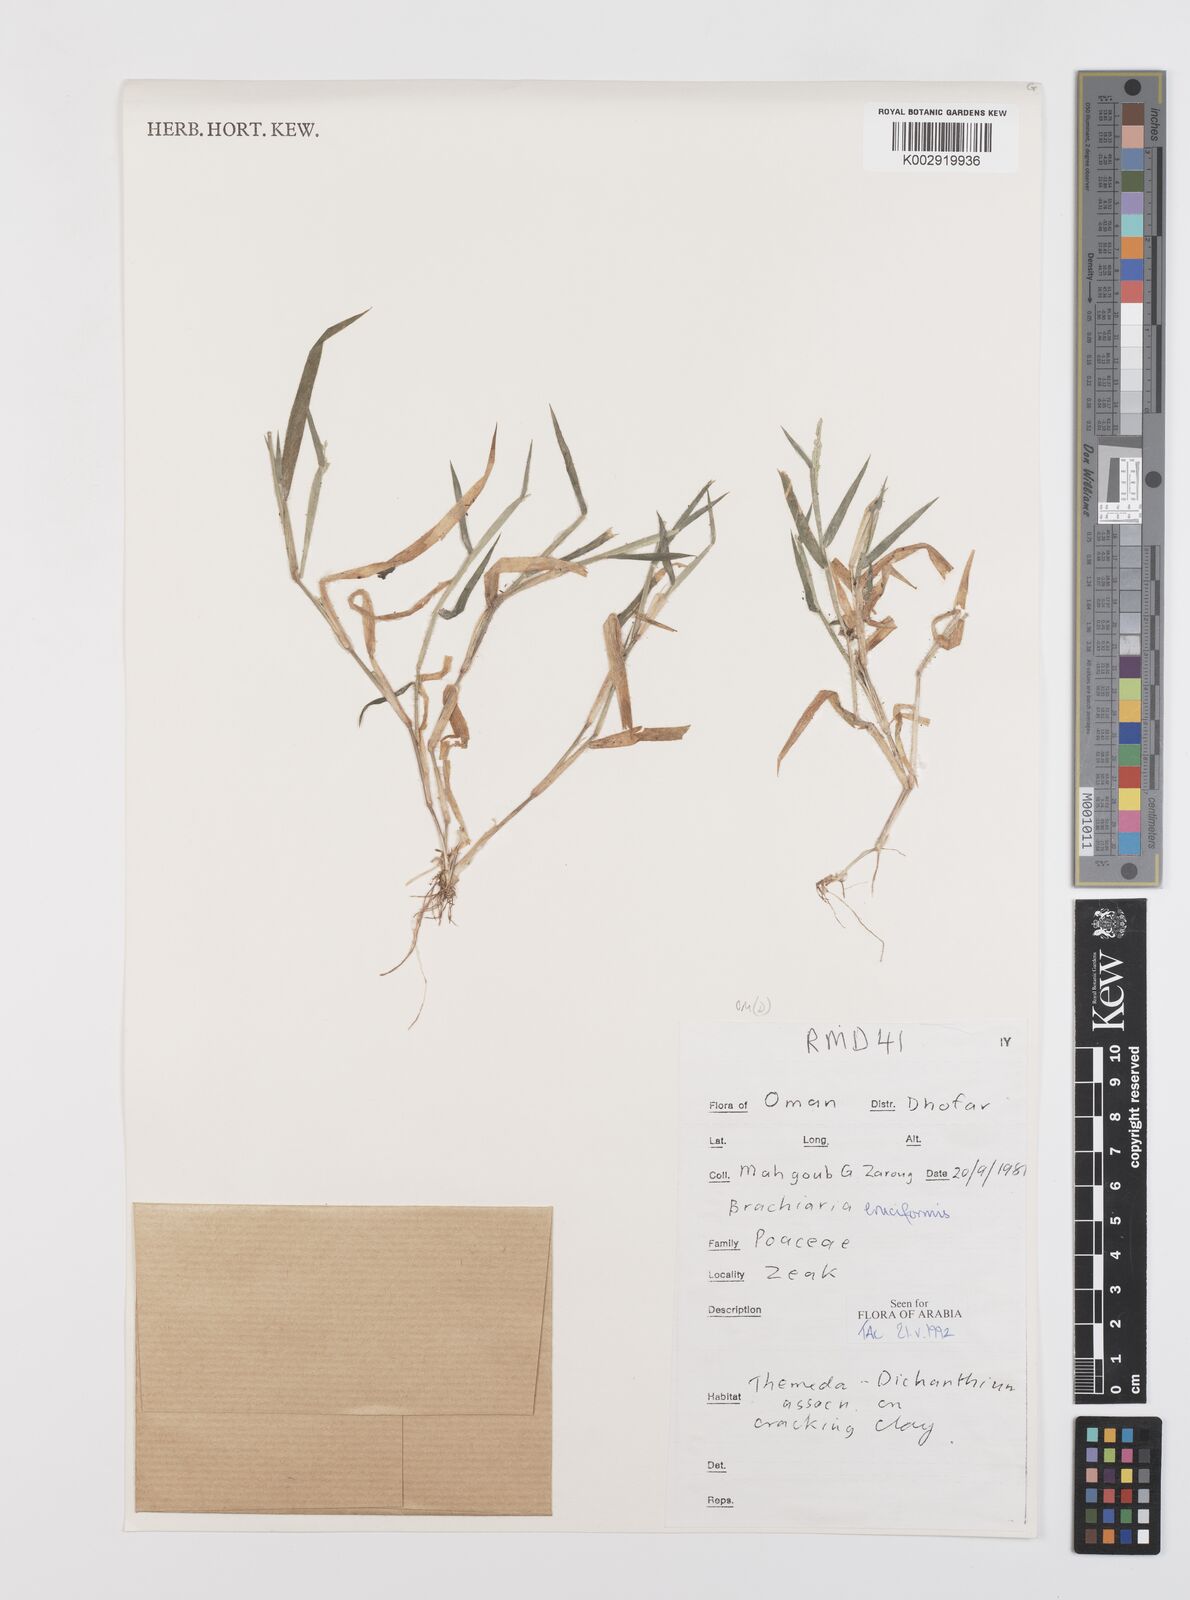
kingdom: Plantae
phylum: Tracheophyta
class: Liliopsida
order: Poales
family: Poaceae
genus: Moorochloa
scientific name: Moorochloa eruciformis
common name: Sweet signalgrass
